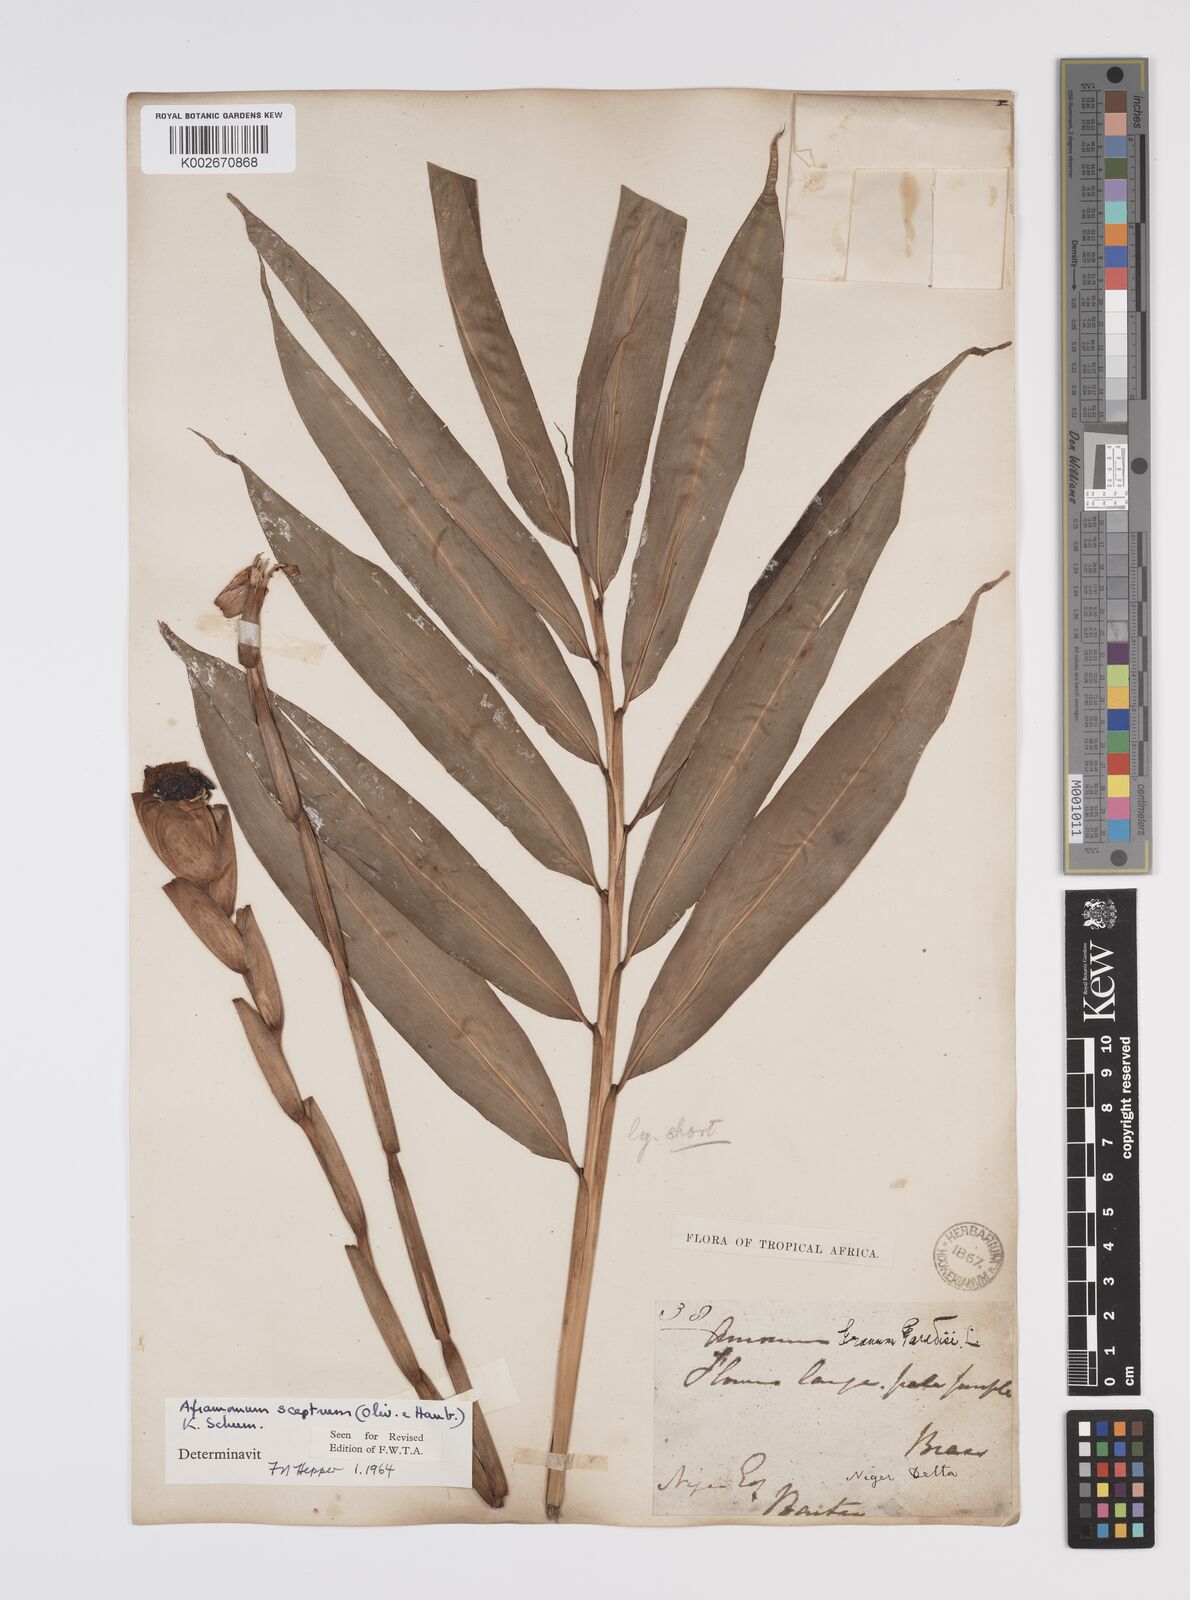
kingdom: Plantae
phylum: Tracheophyta
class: Liliopsida
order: Zingiberales
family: Zingiberaceae
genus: Aframomum
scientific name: Aframomum cereum
